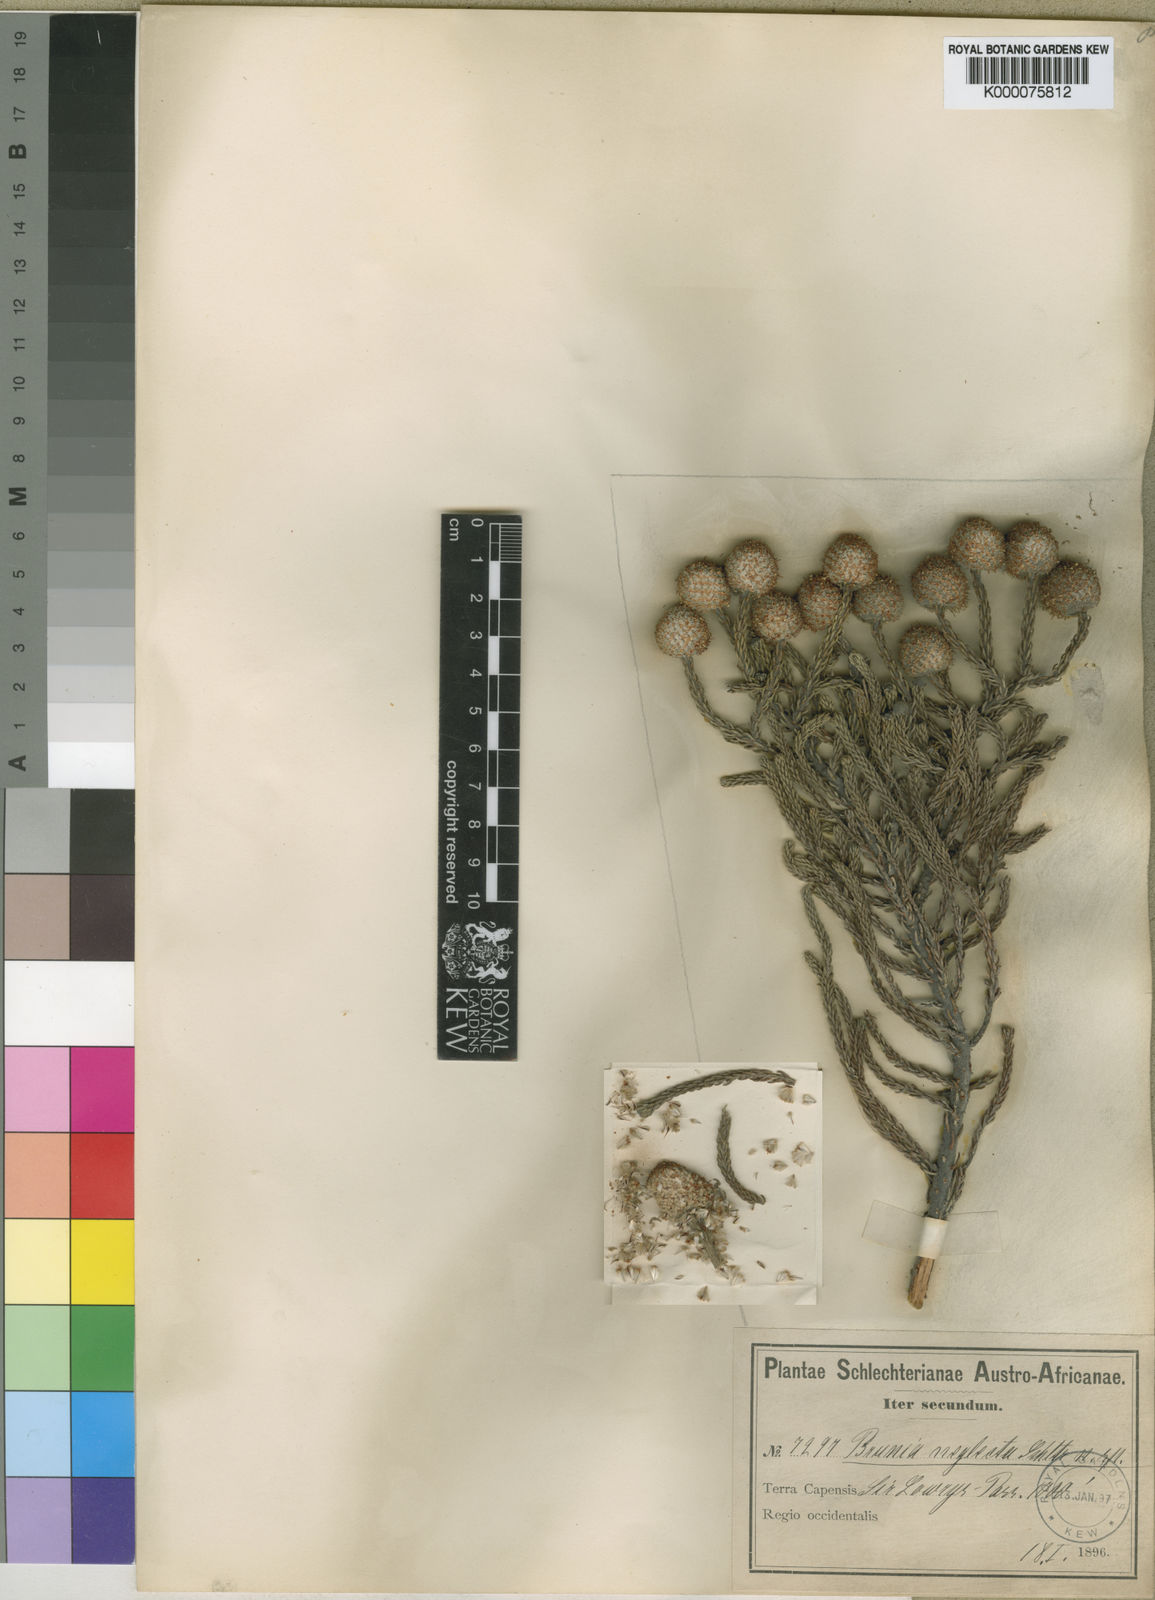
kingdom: Plantae
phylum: Tracheophyta
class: Magnoliopsida
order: Bruniales
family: Bruniaceae
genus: Brunia
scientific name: Brunia neglecta
